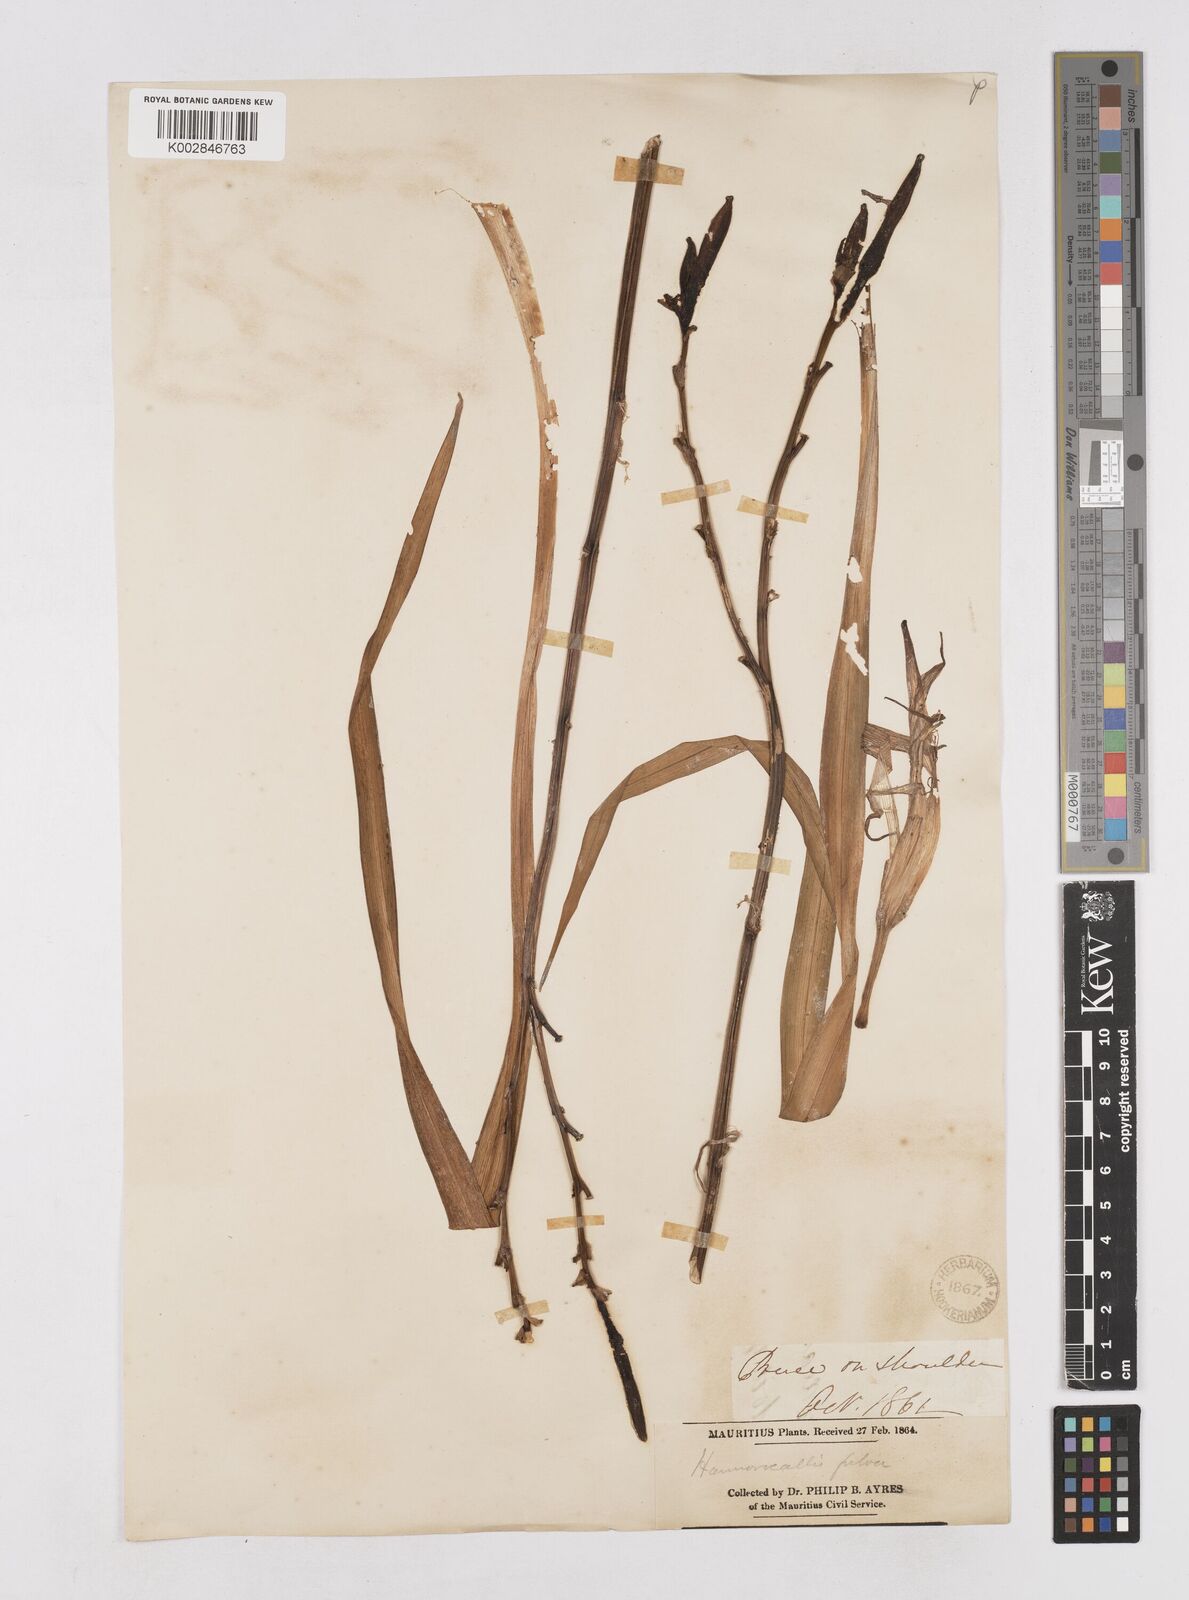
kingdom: Plantae
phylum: Tracheophyta
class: Liliopsida
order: Asparagales
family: Asphodelaceae
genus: Hemerocallis
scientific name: Hemerocallis fulva
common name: Orange day-lily
